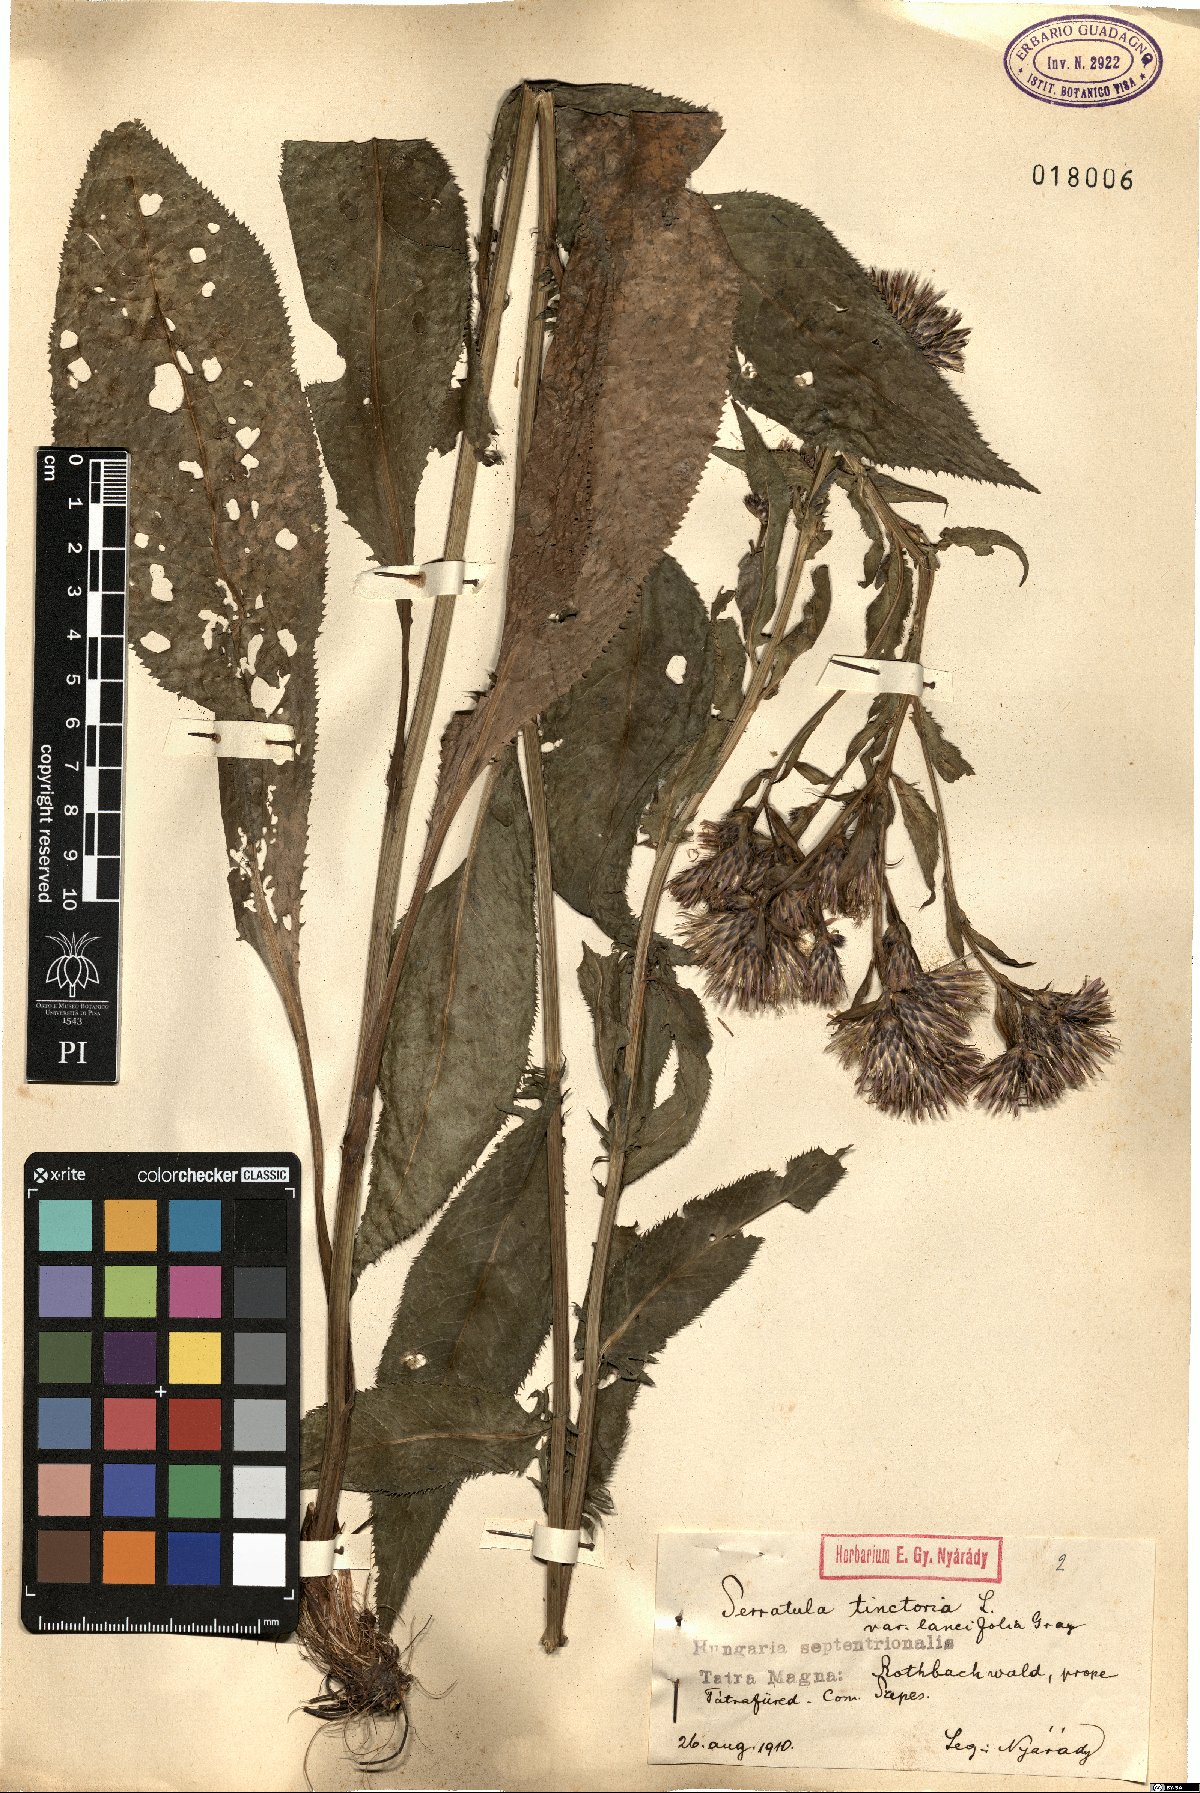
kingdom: Plantae
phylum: Tracheophyta
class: Magnoliopsida
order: Asterales
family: Asteraceae
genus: Serratula
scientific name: Serratula tinctoria
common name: Saw-wort
